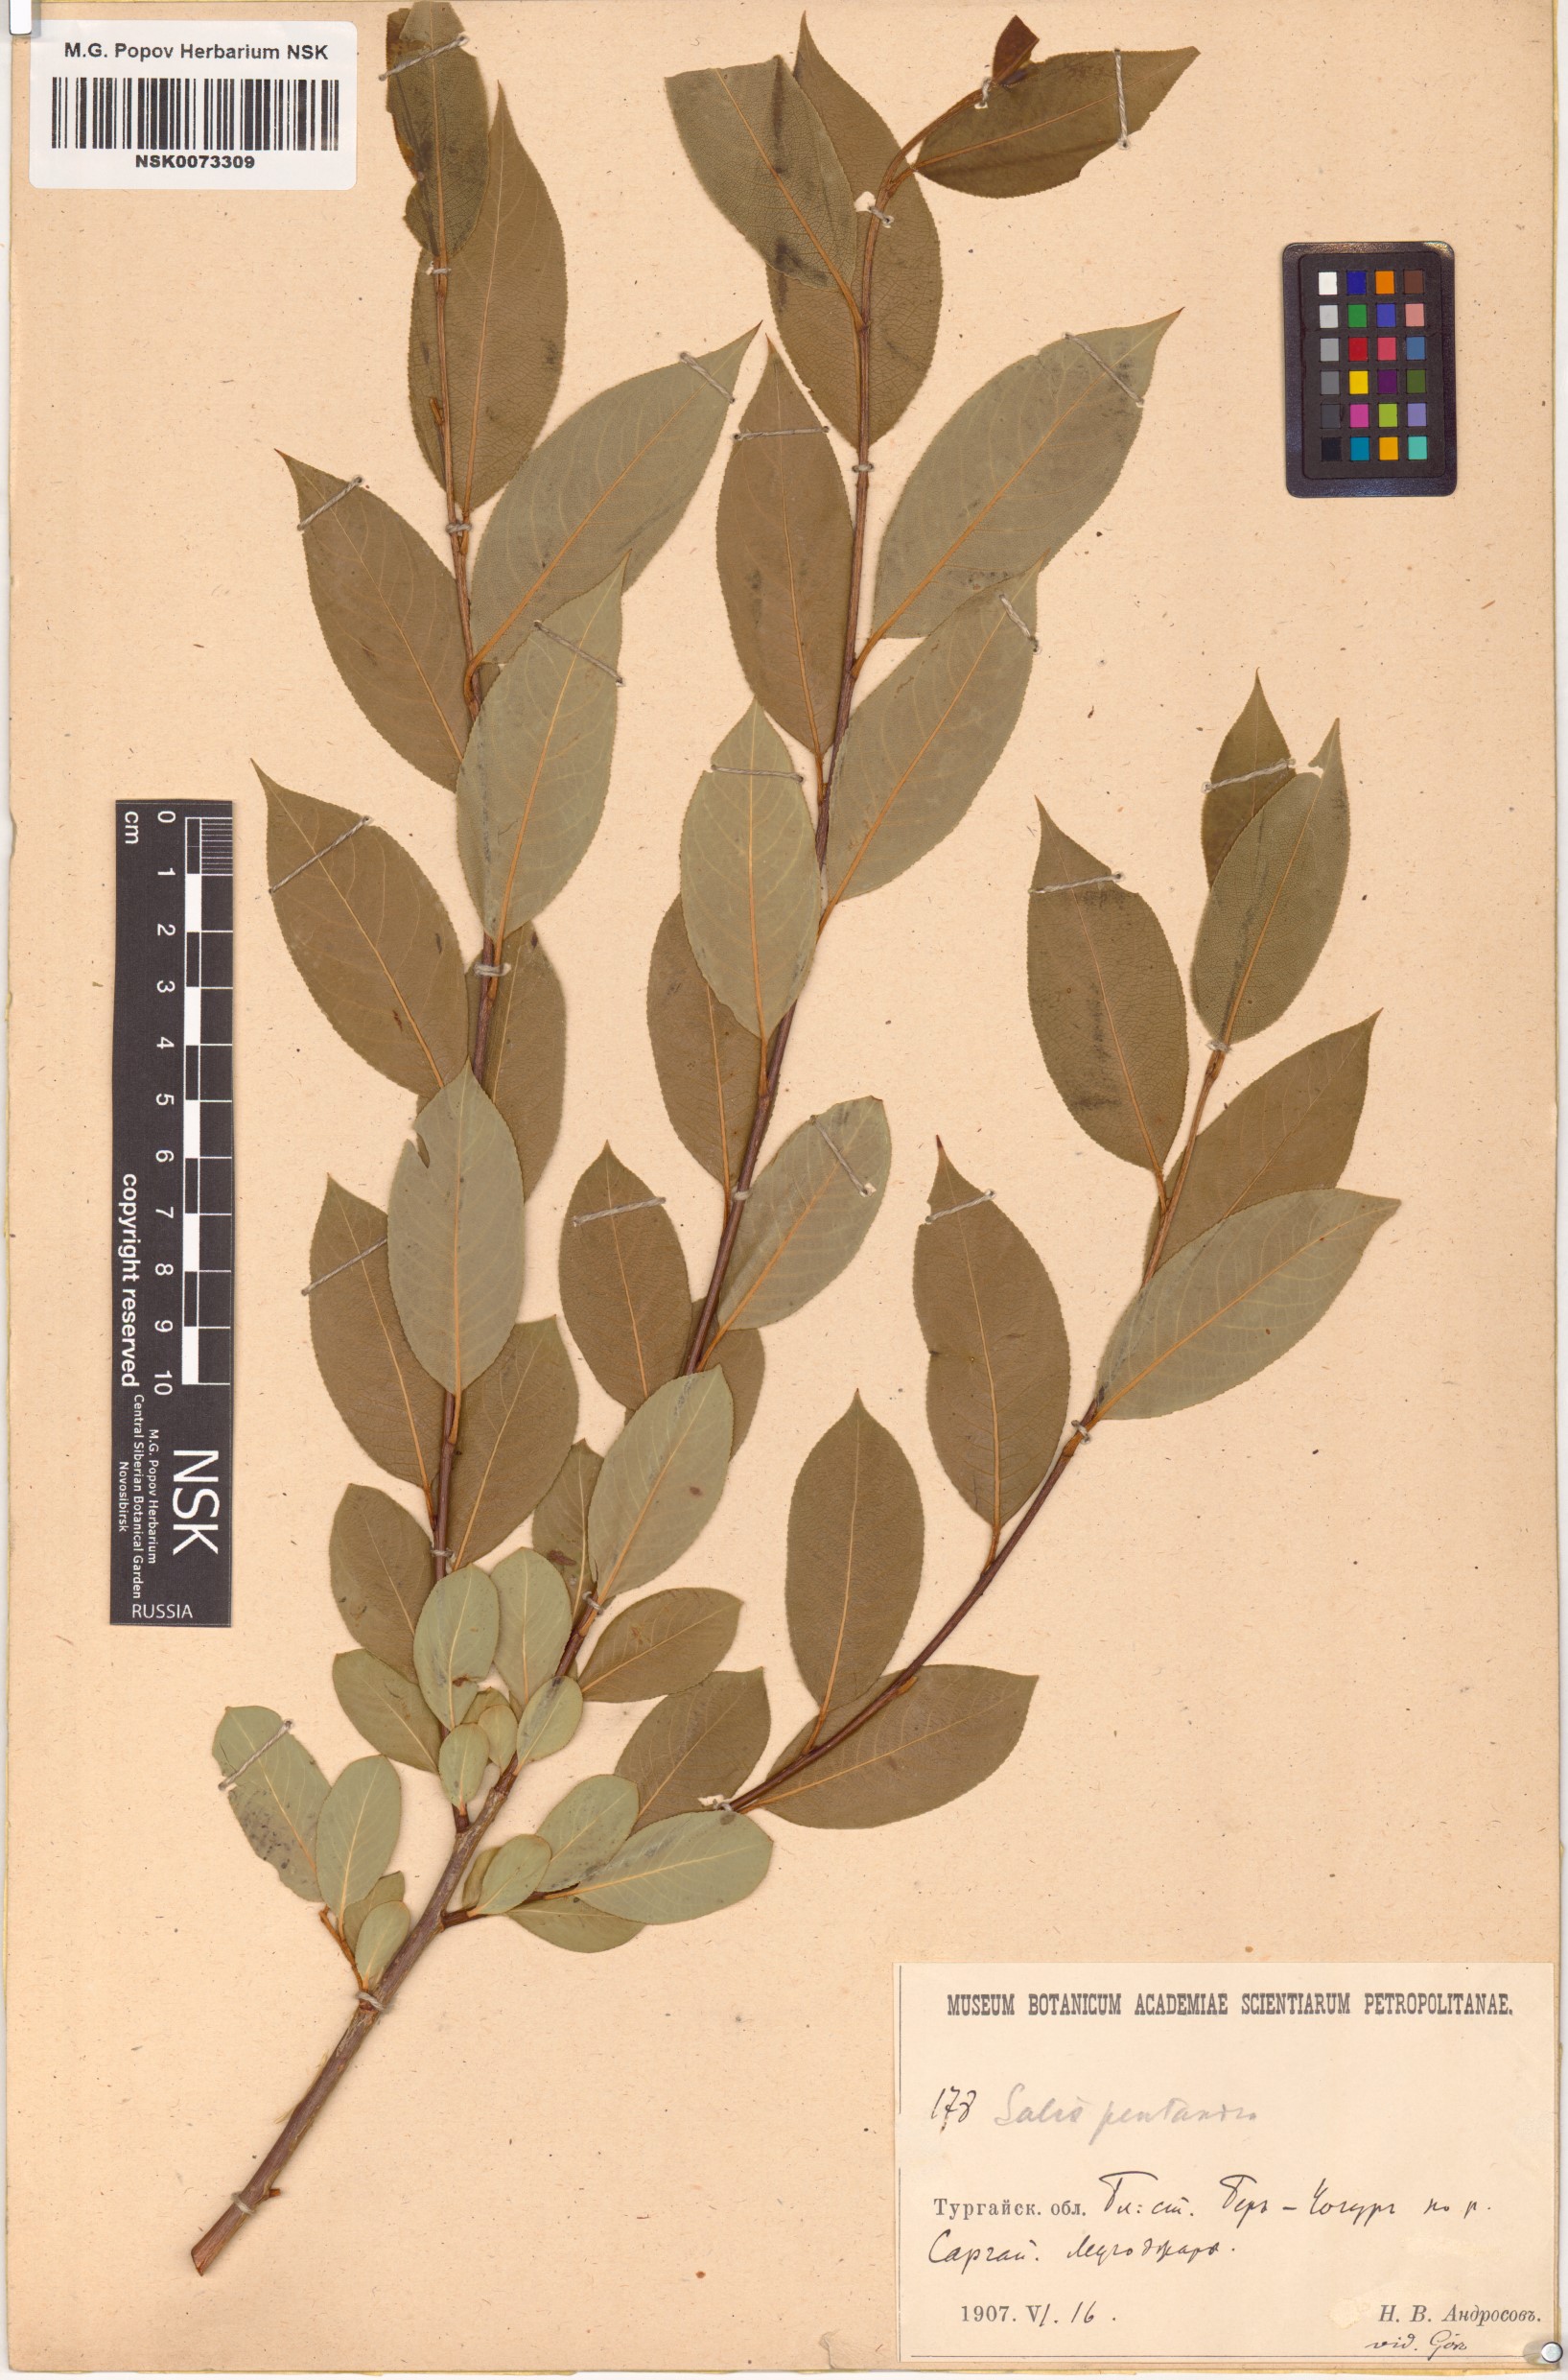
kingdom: Plantae
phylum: Tracheophyta
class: Magnoliopsida
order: Malpighiales
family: Salicaceae
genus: Salix
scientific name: Salix pentandra
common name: Bay willow
